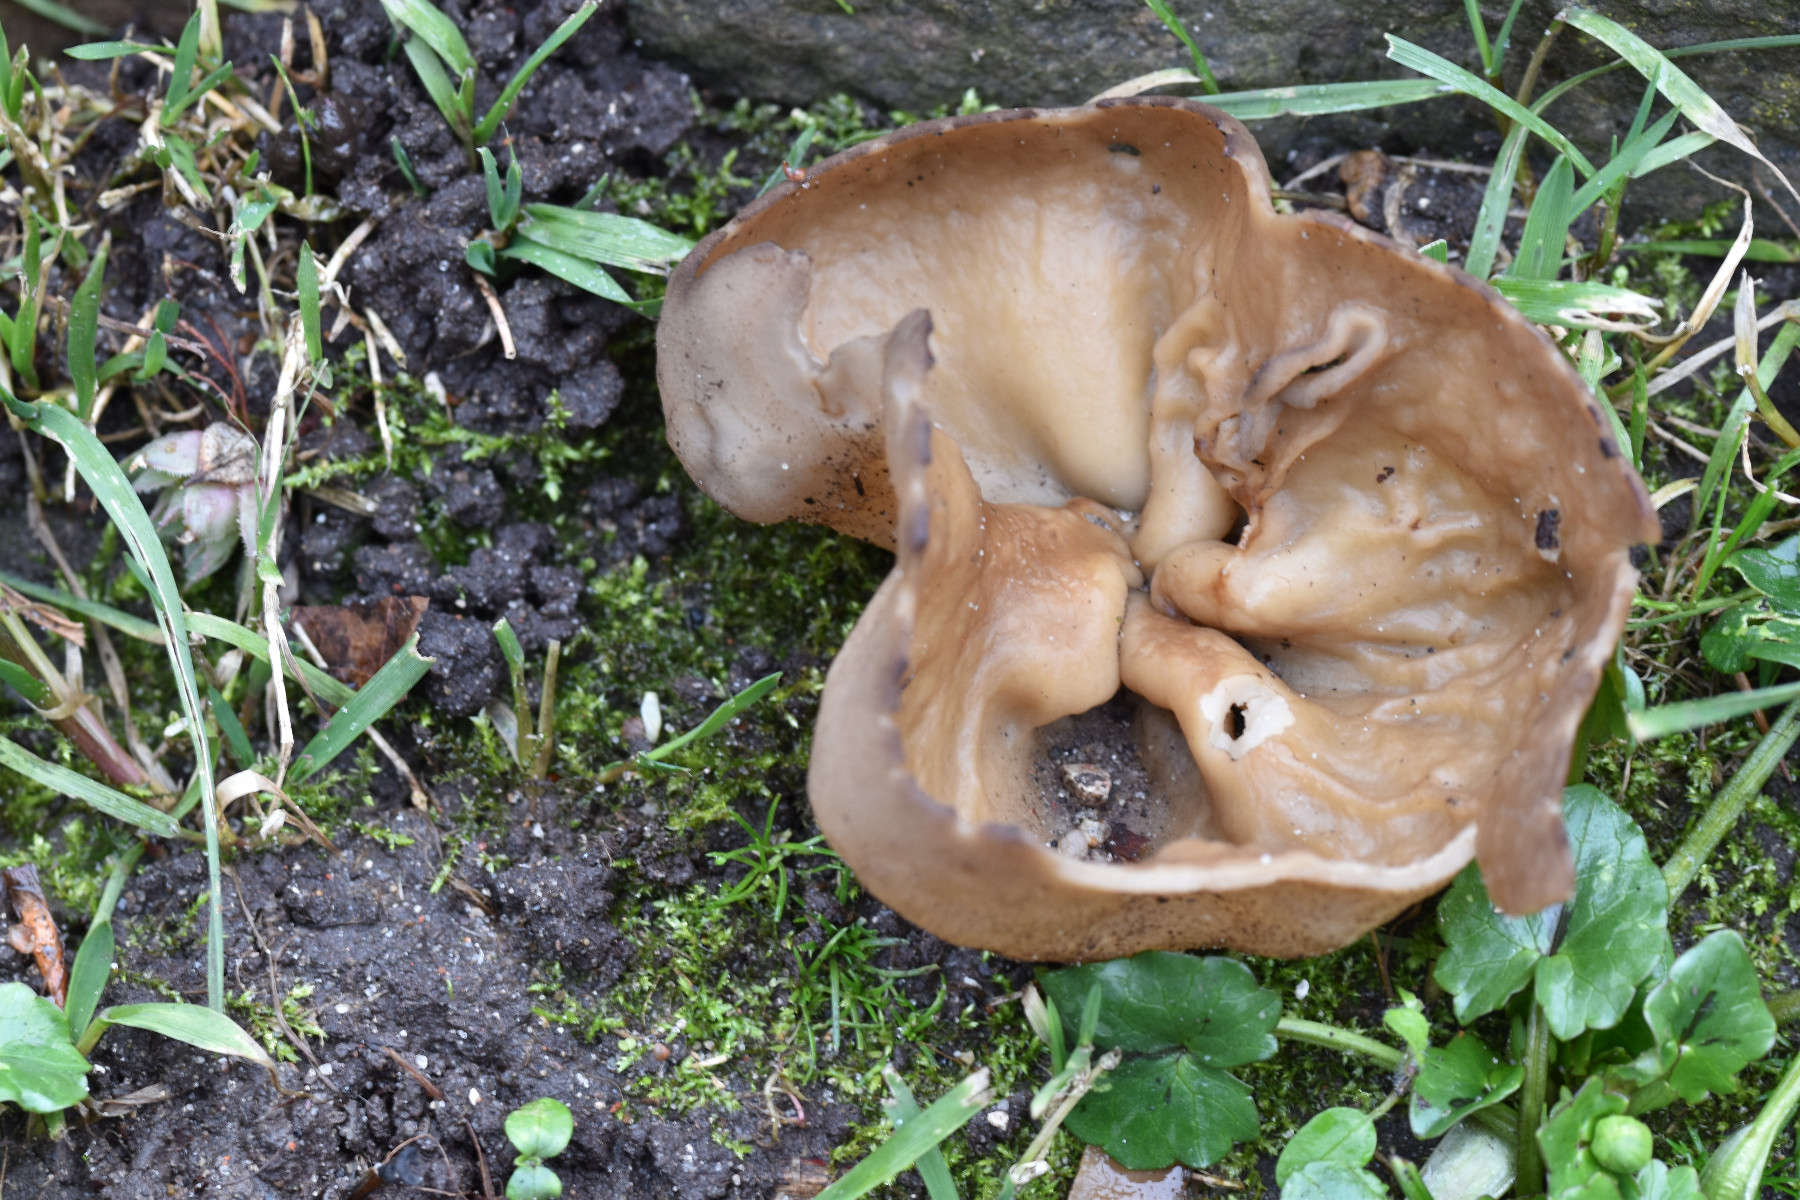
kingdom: Fungi
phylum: Ascomycota
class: Pezizomycetes
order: Pezizales
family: Morchellaceae
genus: Disciotis
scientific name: Disciotis venosa
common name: klor-bægermorkel
